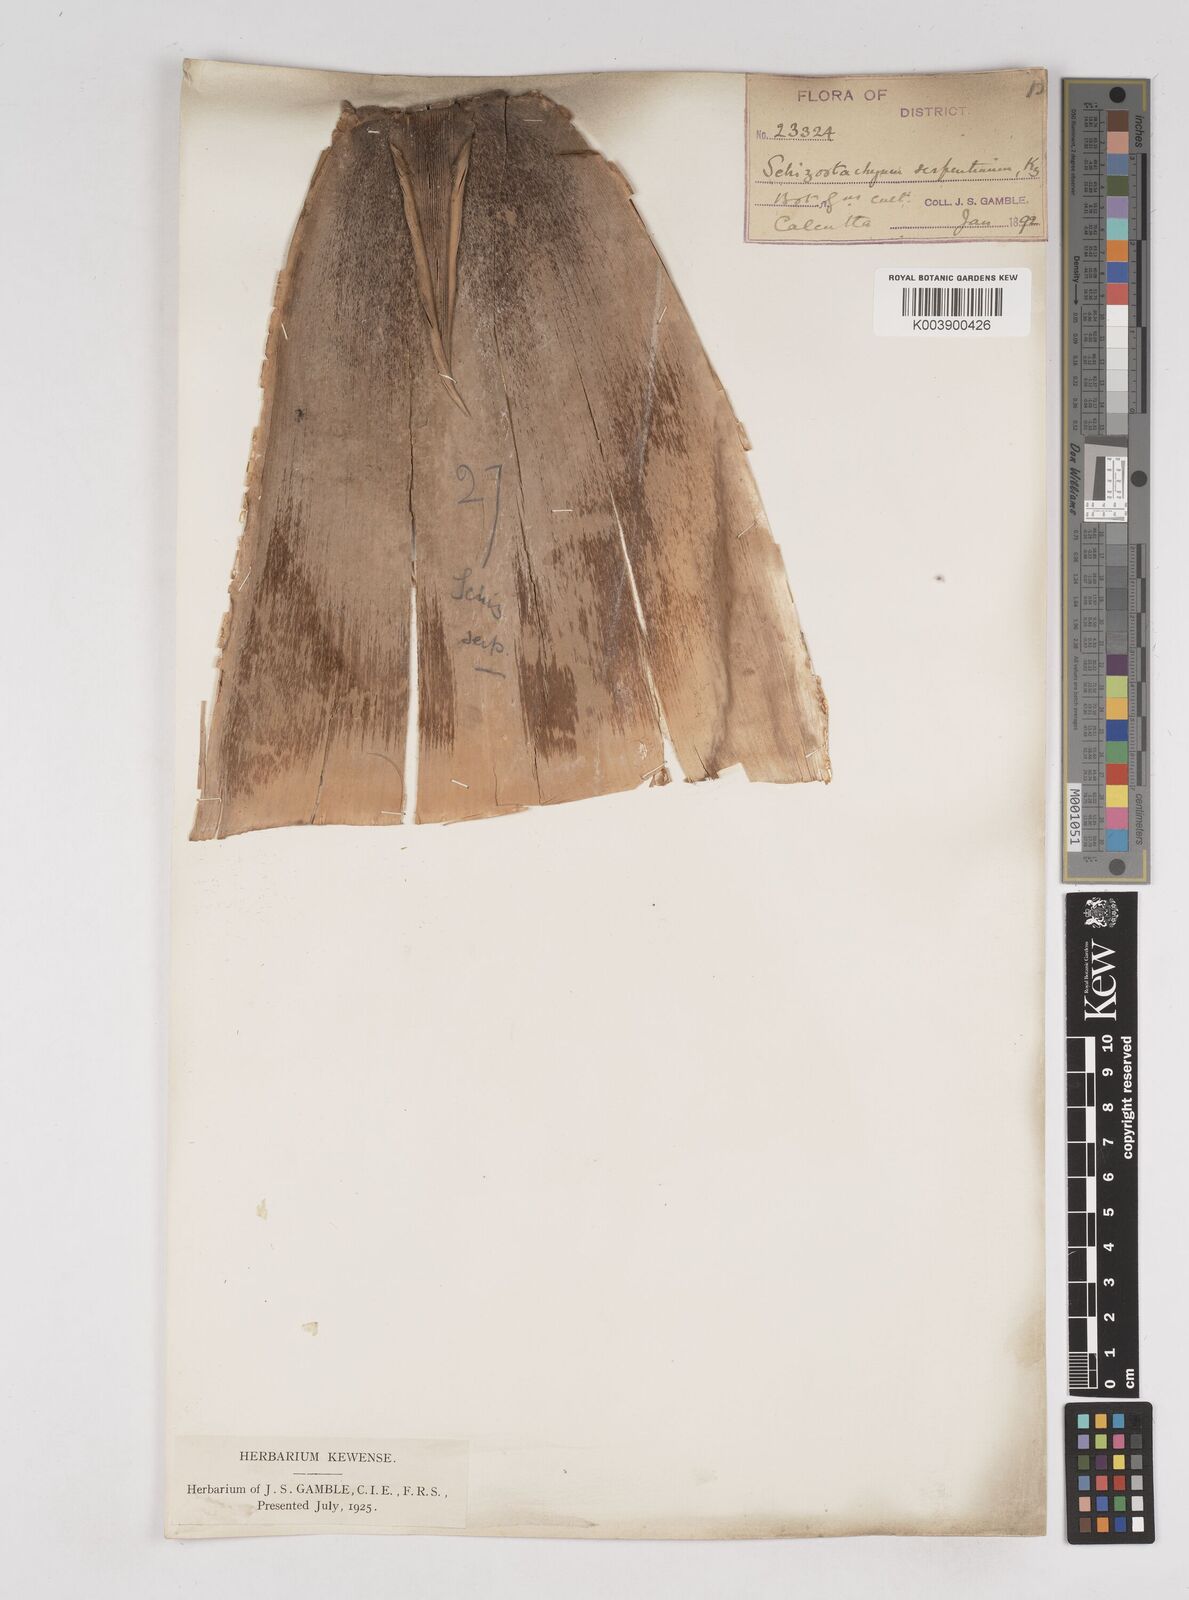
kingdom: Plantae
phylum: Tracheophyta
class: Liliopsida
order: Poales
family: Poaceae
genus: Gigantochloa
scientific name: Gigantochloa nigrociliata
